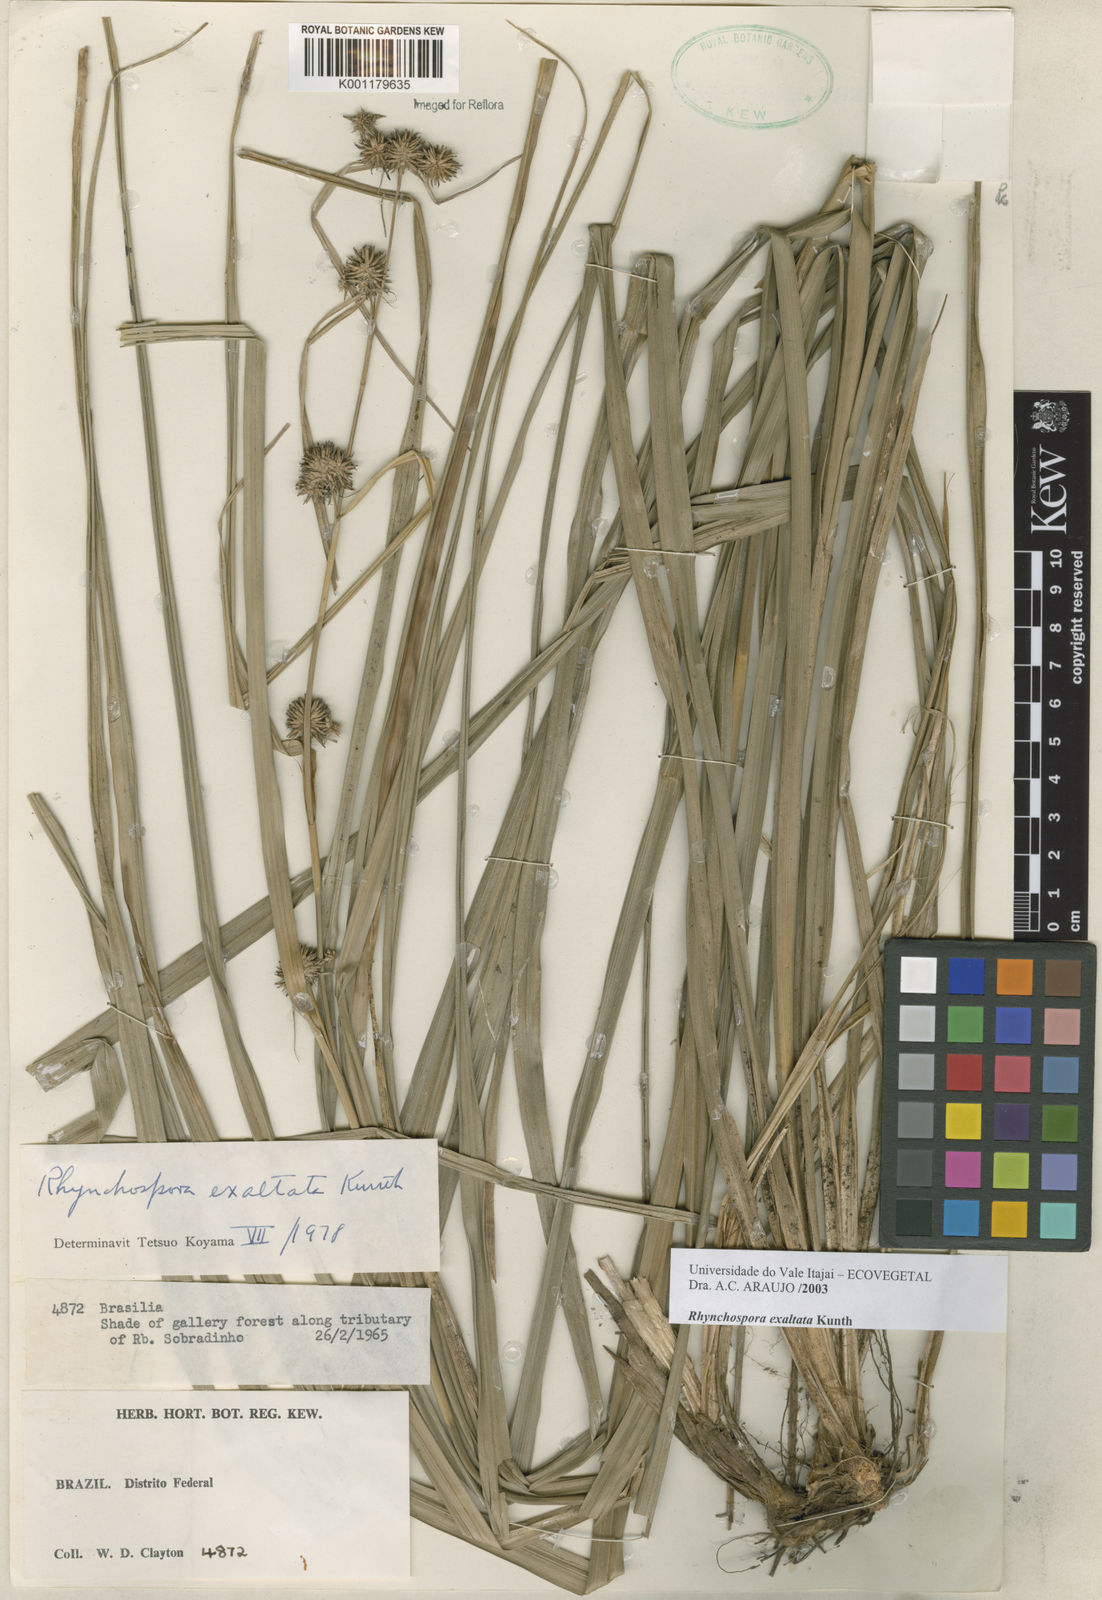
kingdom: Plantae
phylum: Tracheophyta
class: Liliopsida
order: Poales
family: Cyperaceae
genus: Rhynchospora
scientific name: Rhynchospora exaltata
